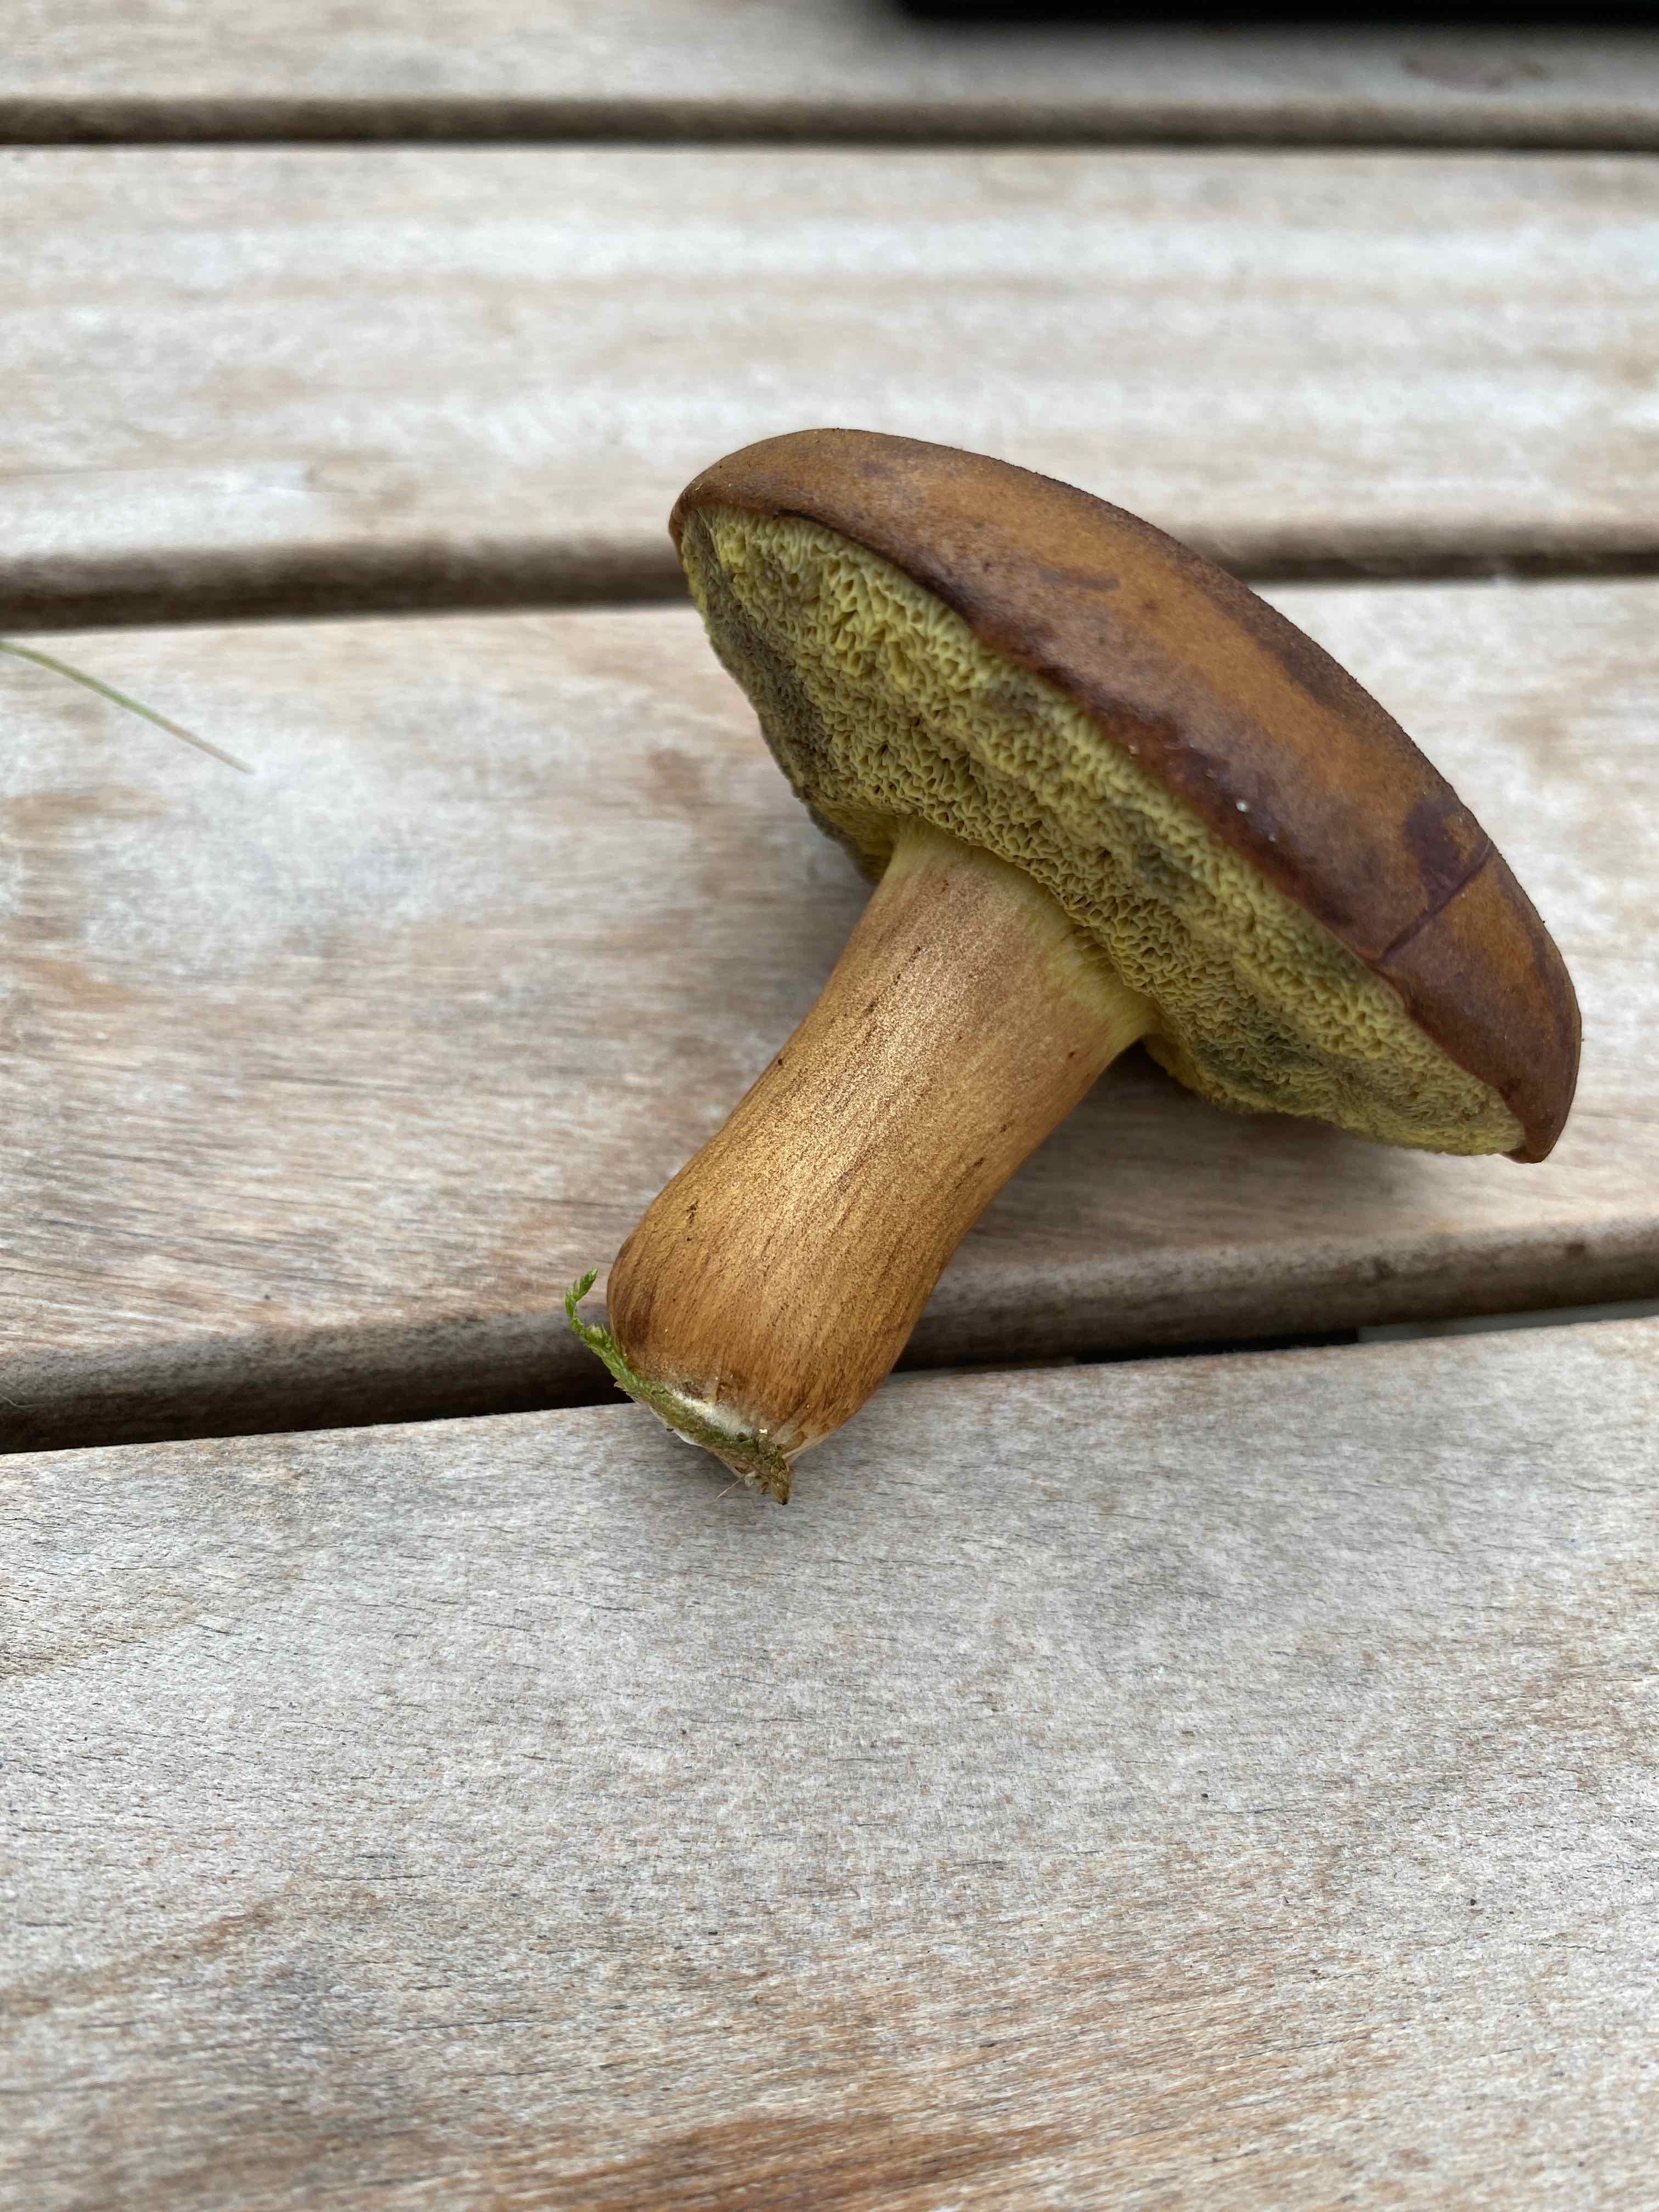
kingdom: Fungi
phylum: Basidiomycota
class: Agaricomycetes
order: Boletales
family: Boletaceae
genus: Imleria
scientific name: Imleria badia
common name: brunstokket rørhat
